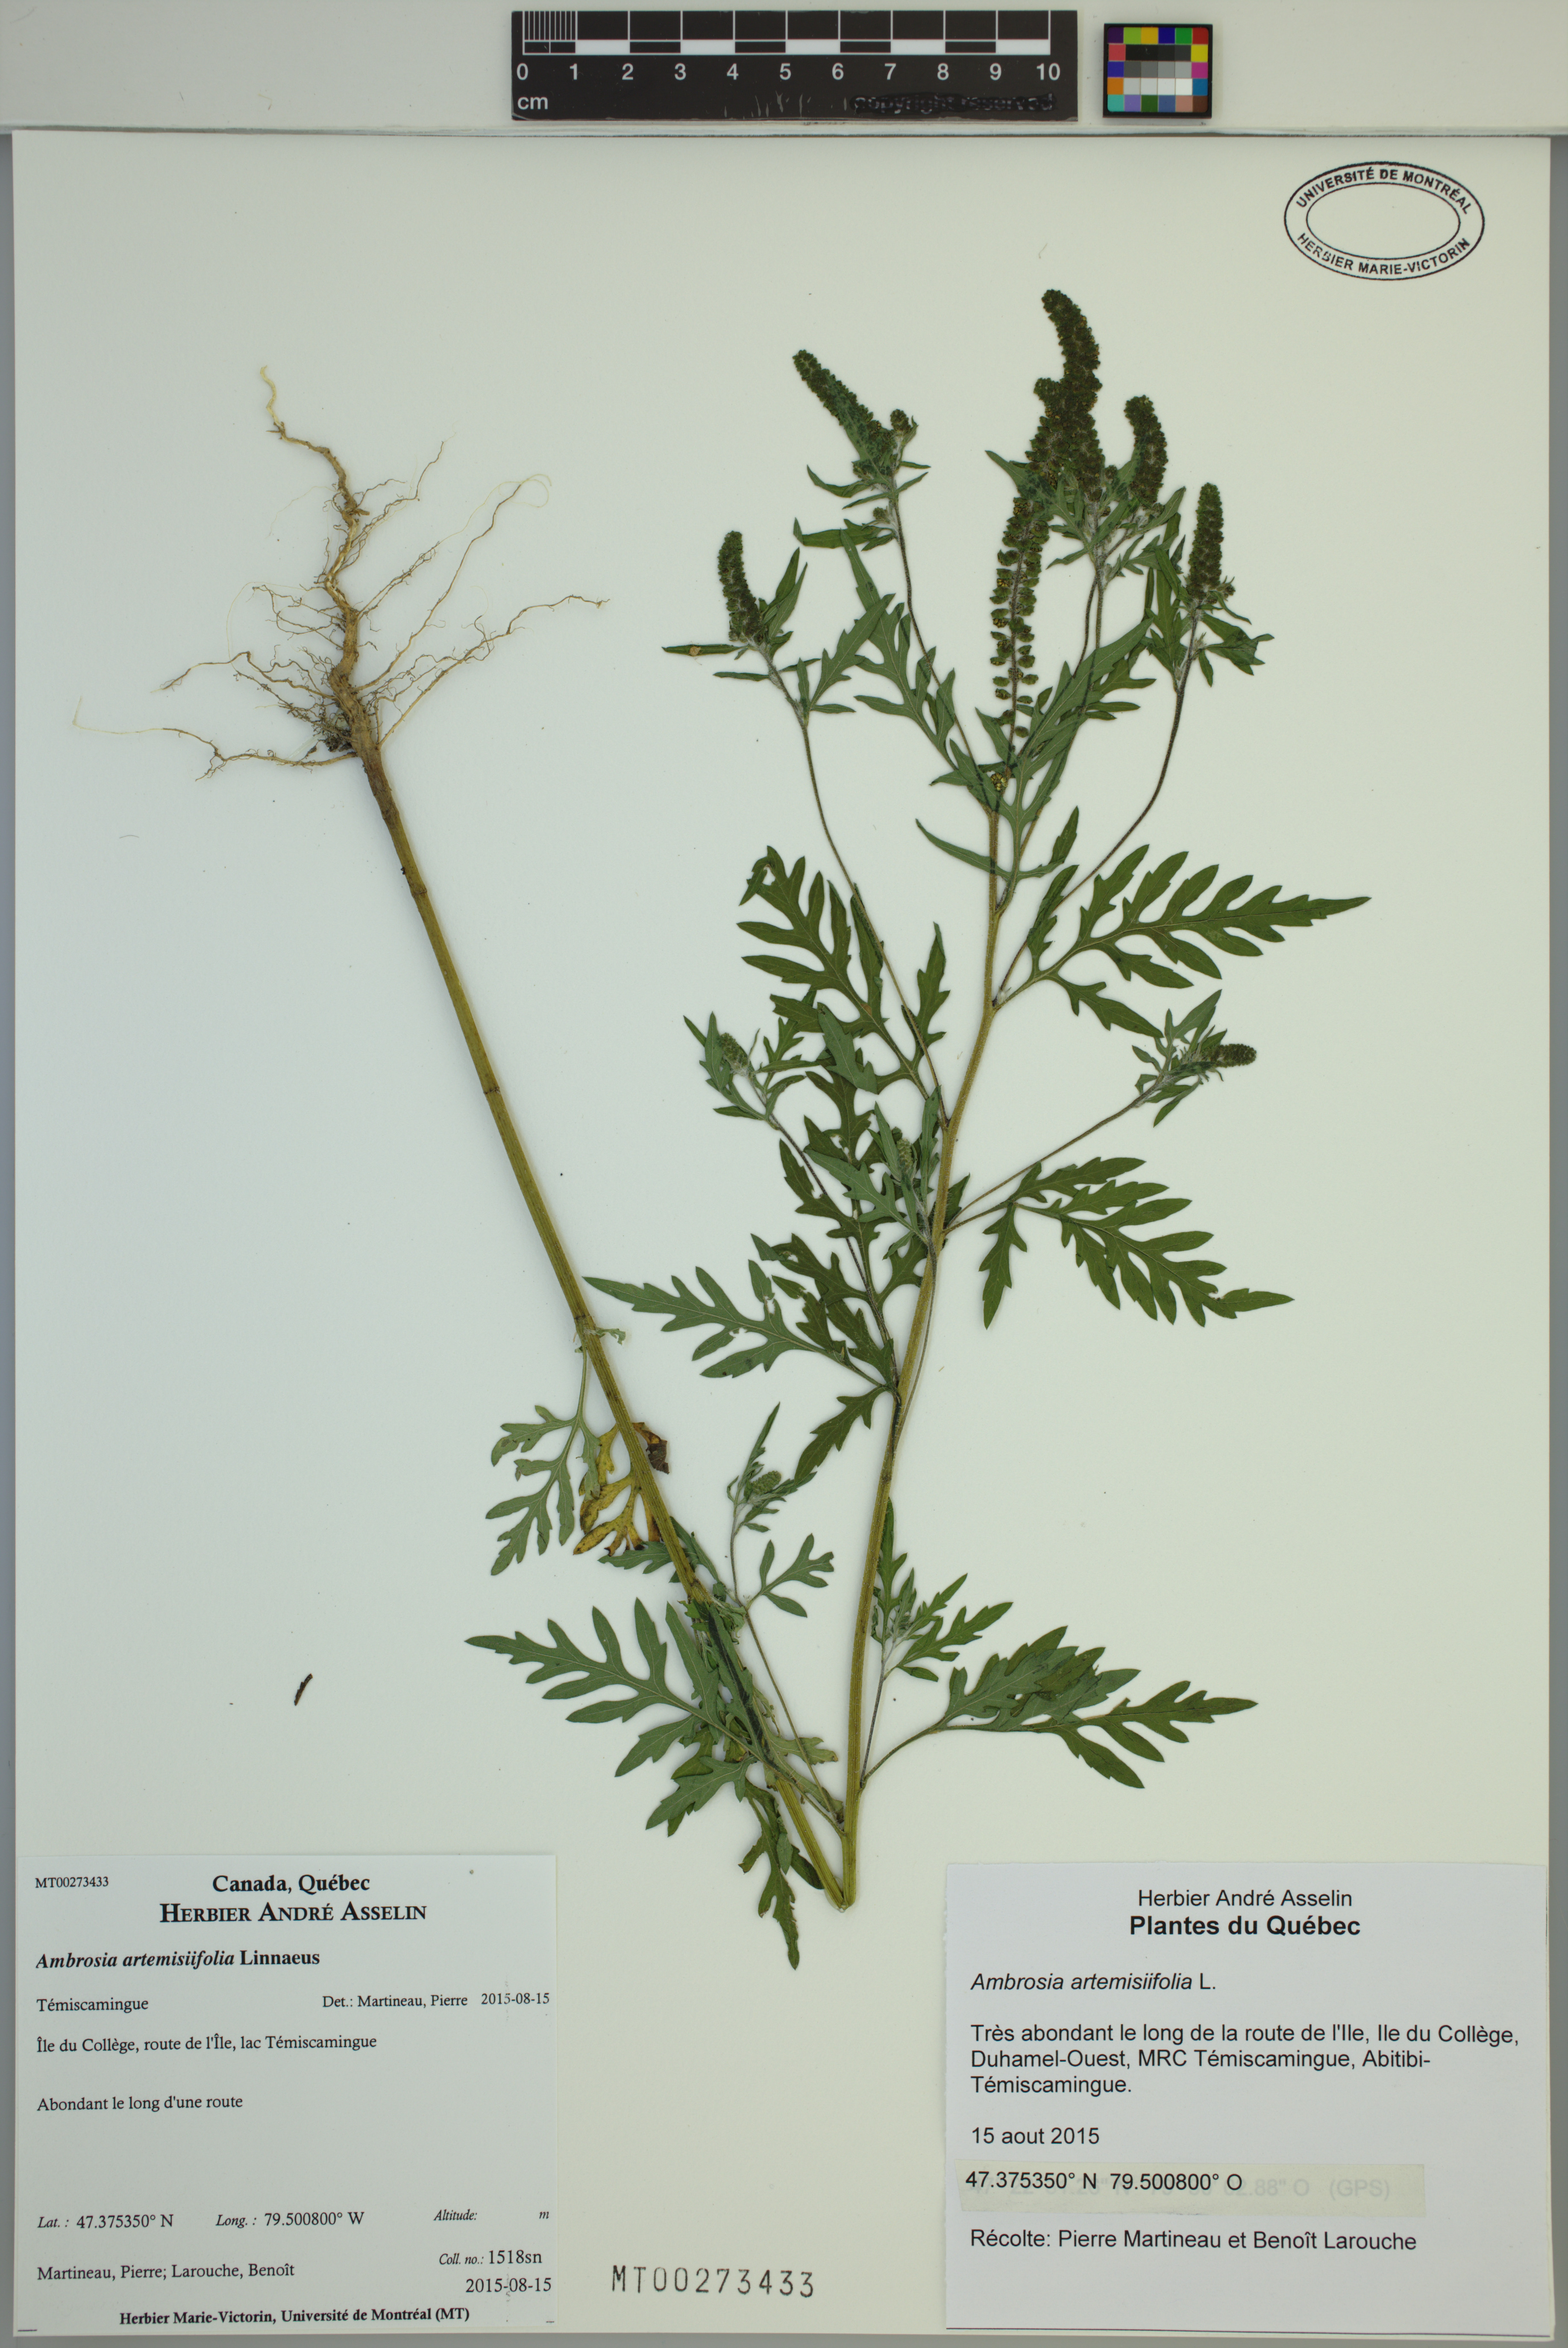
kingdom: Plantae
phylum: Tracheophyta
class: Magnoliopsida
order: Asterales
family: Asteraceae
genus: Ambrosia
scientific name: Ambrosia artemisiifolia
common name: Annual ragweed
